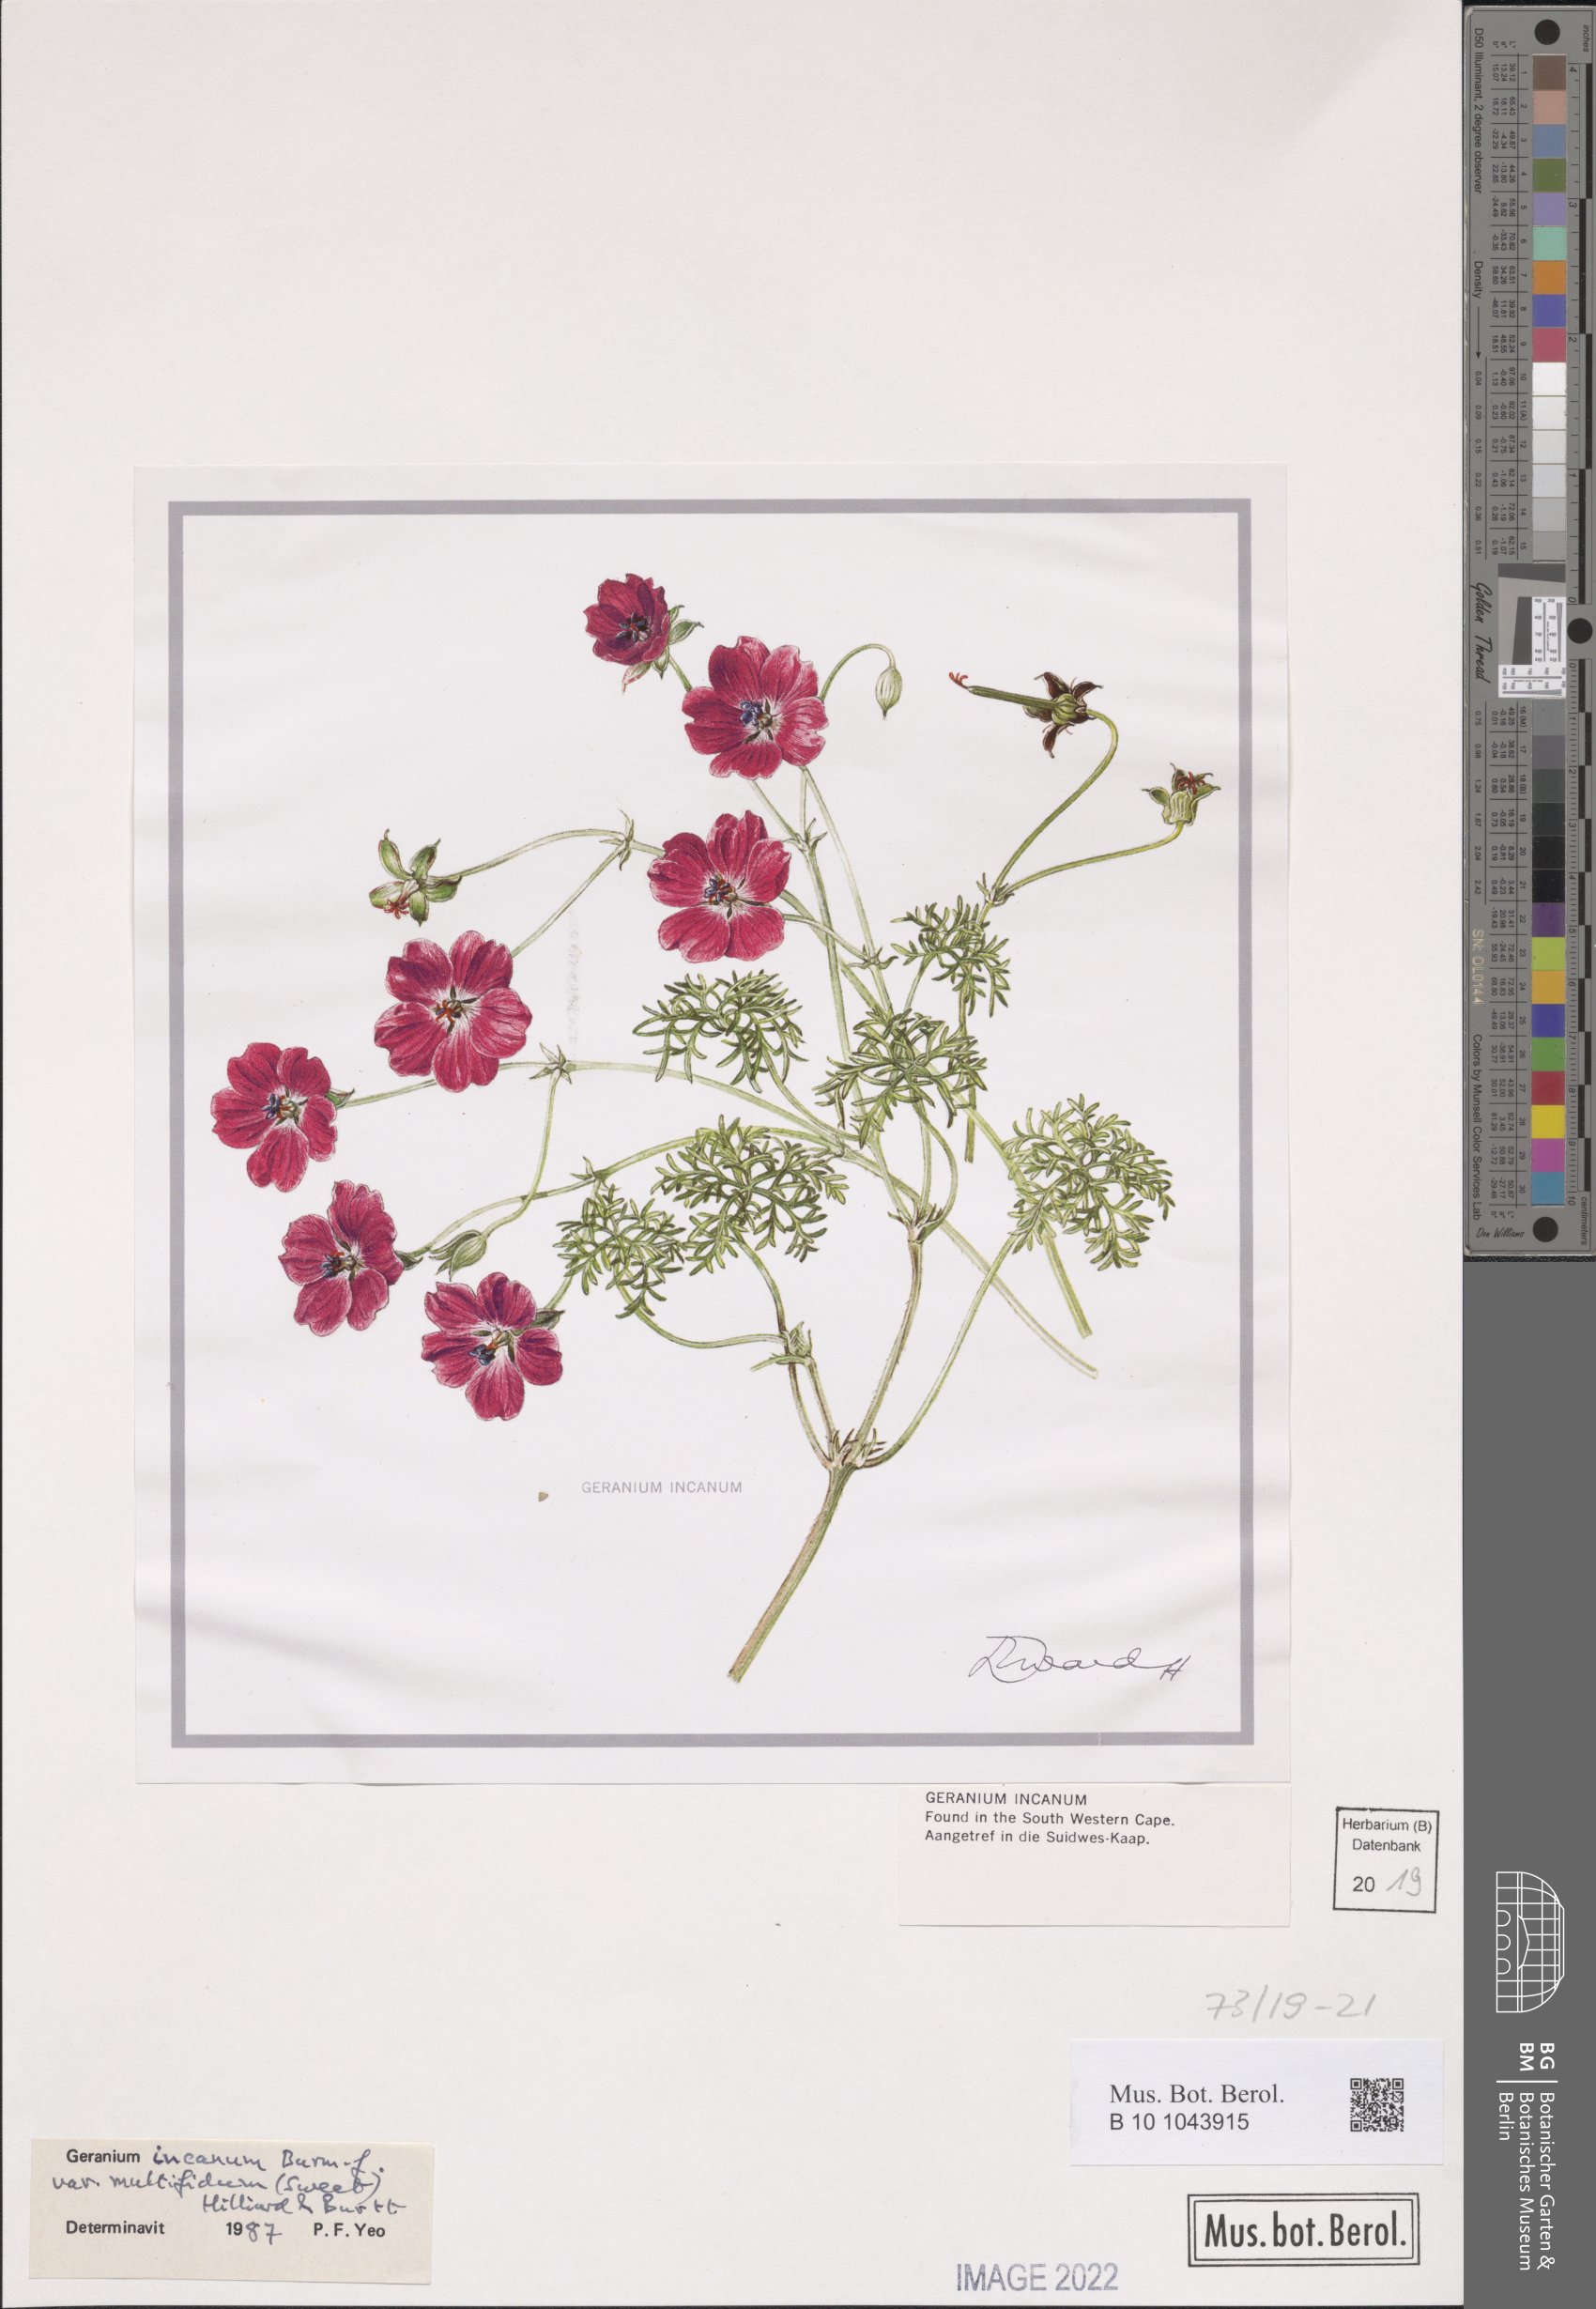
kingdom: Plantae
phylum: Tracheophyta
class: Magnoliopsida
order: Geraniales
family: Geraniaceae
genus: Geranium
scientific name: Geranium incanum
